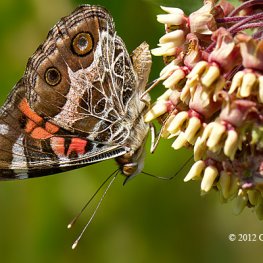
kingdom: Animalia
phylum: Arthropoda
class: Insecta
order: Lepidoptera
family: Nymphalidae
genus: Vanessa
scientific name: Vanessa virginiensis
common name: American Lady
